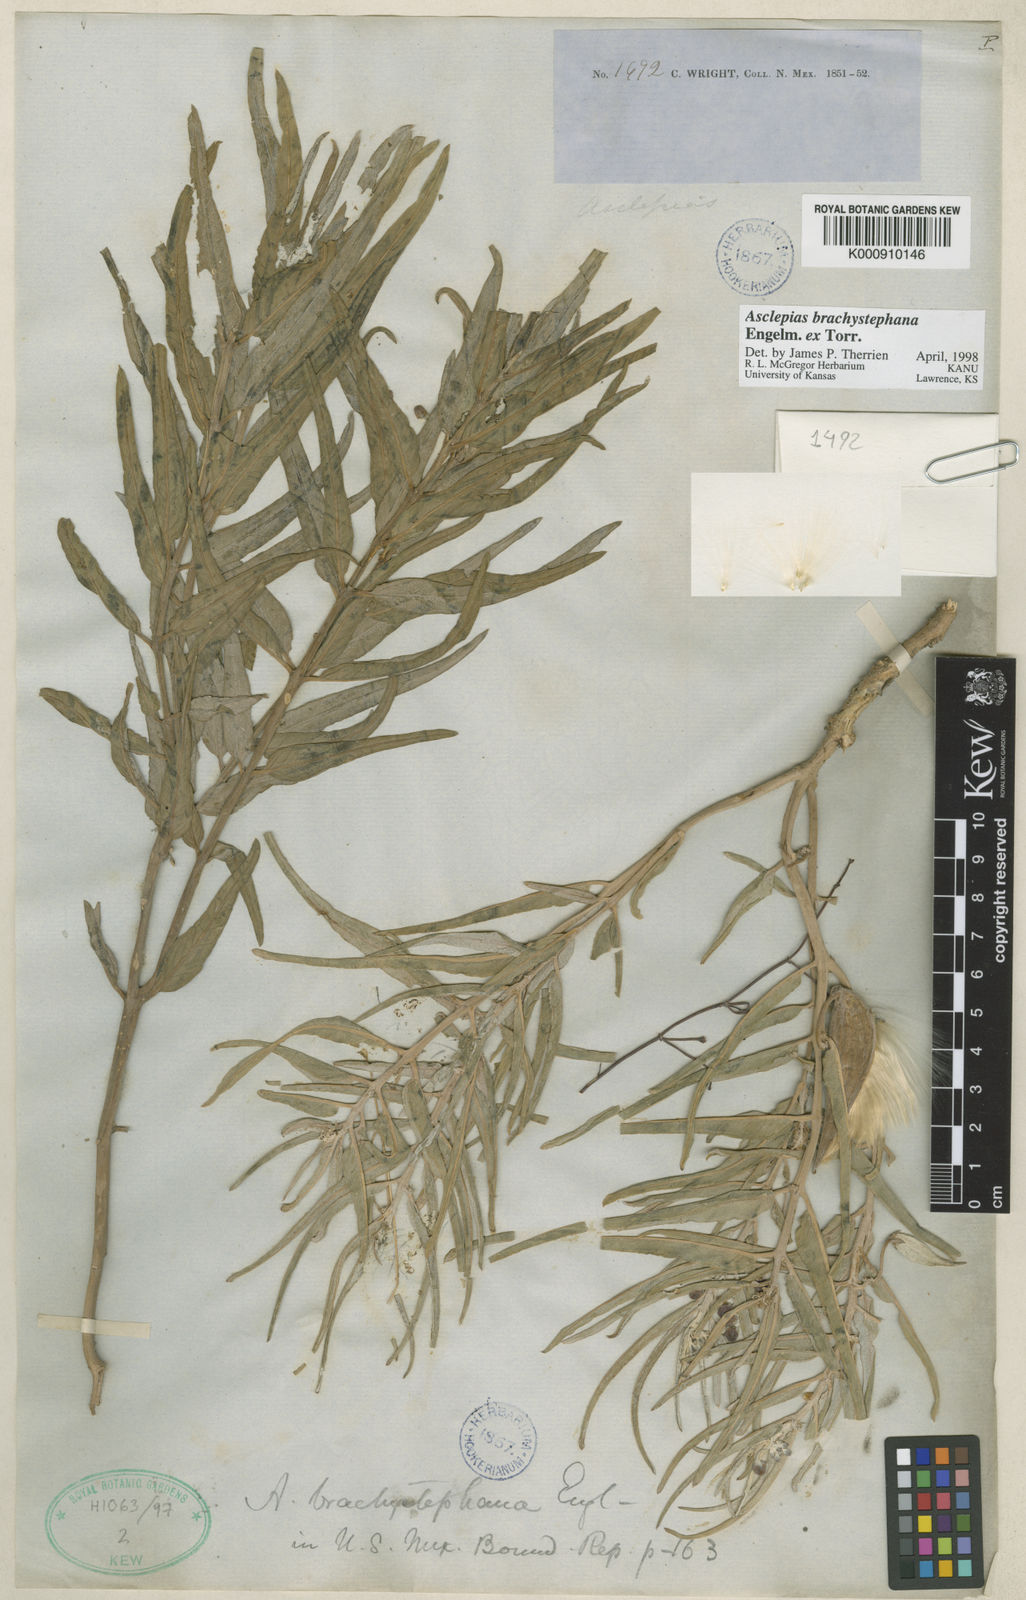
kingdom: Plantae
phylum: Tracheophyta
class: Magnoliopsida
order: Gentianales
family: Apocynaceae
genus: Asclepias
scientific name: Asclepias brachystephana
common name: Shortcrown milkweed
